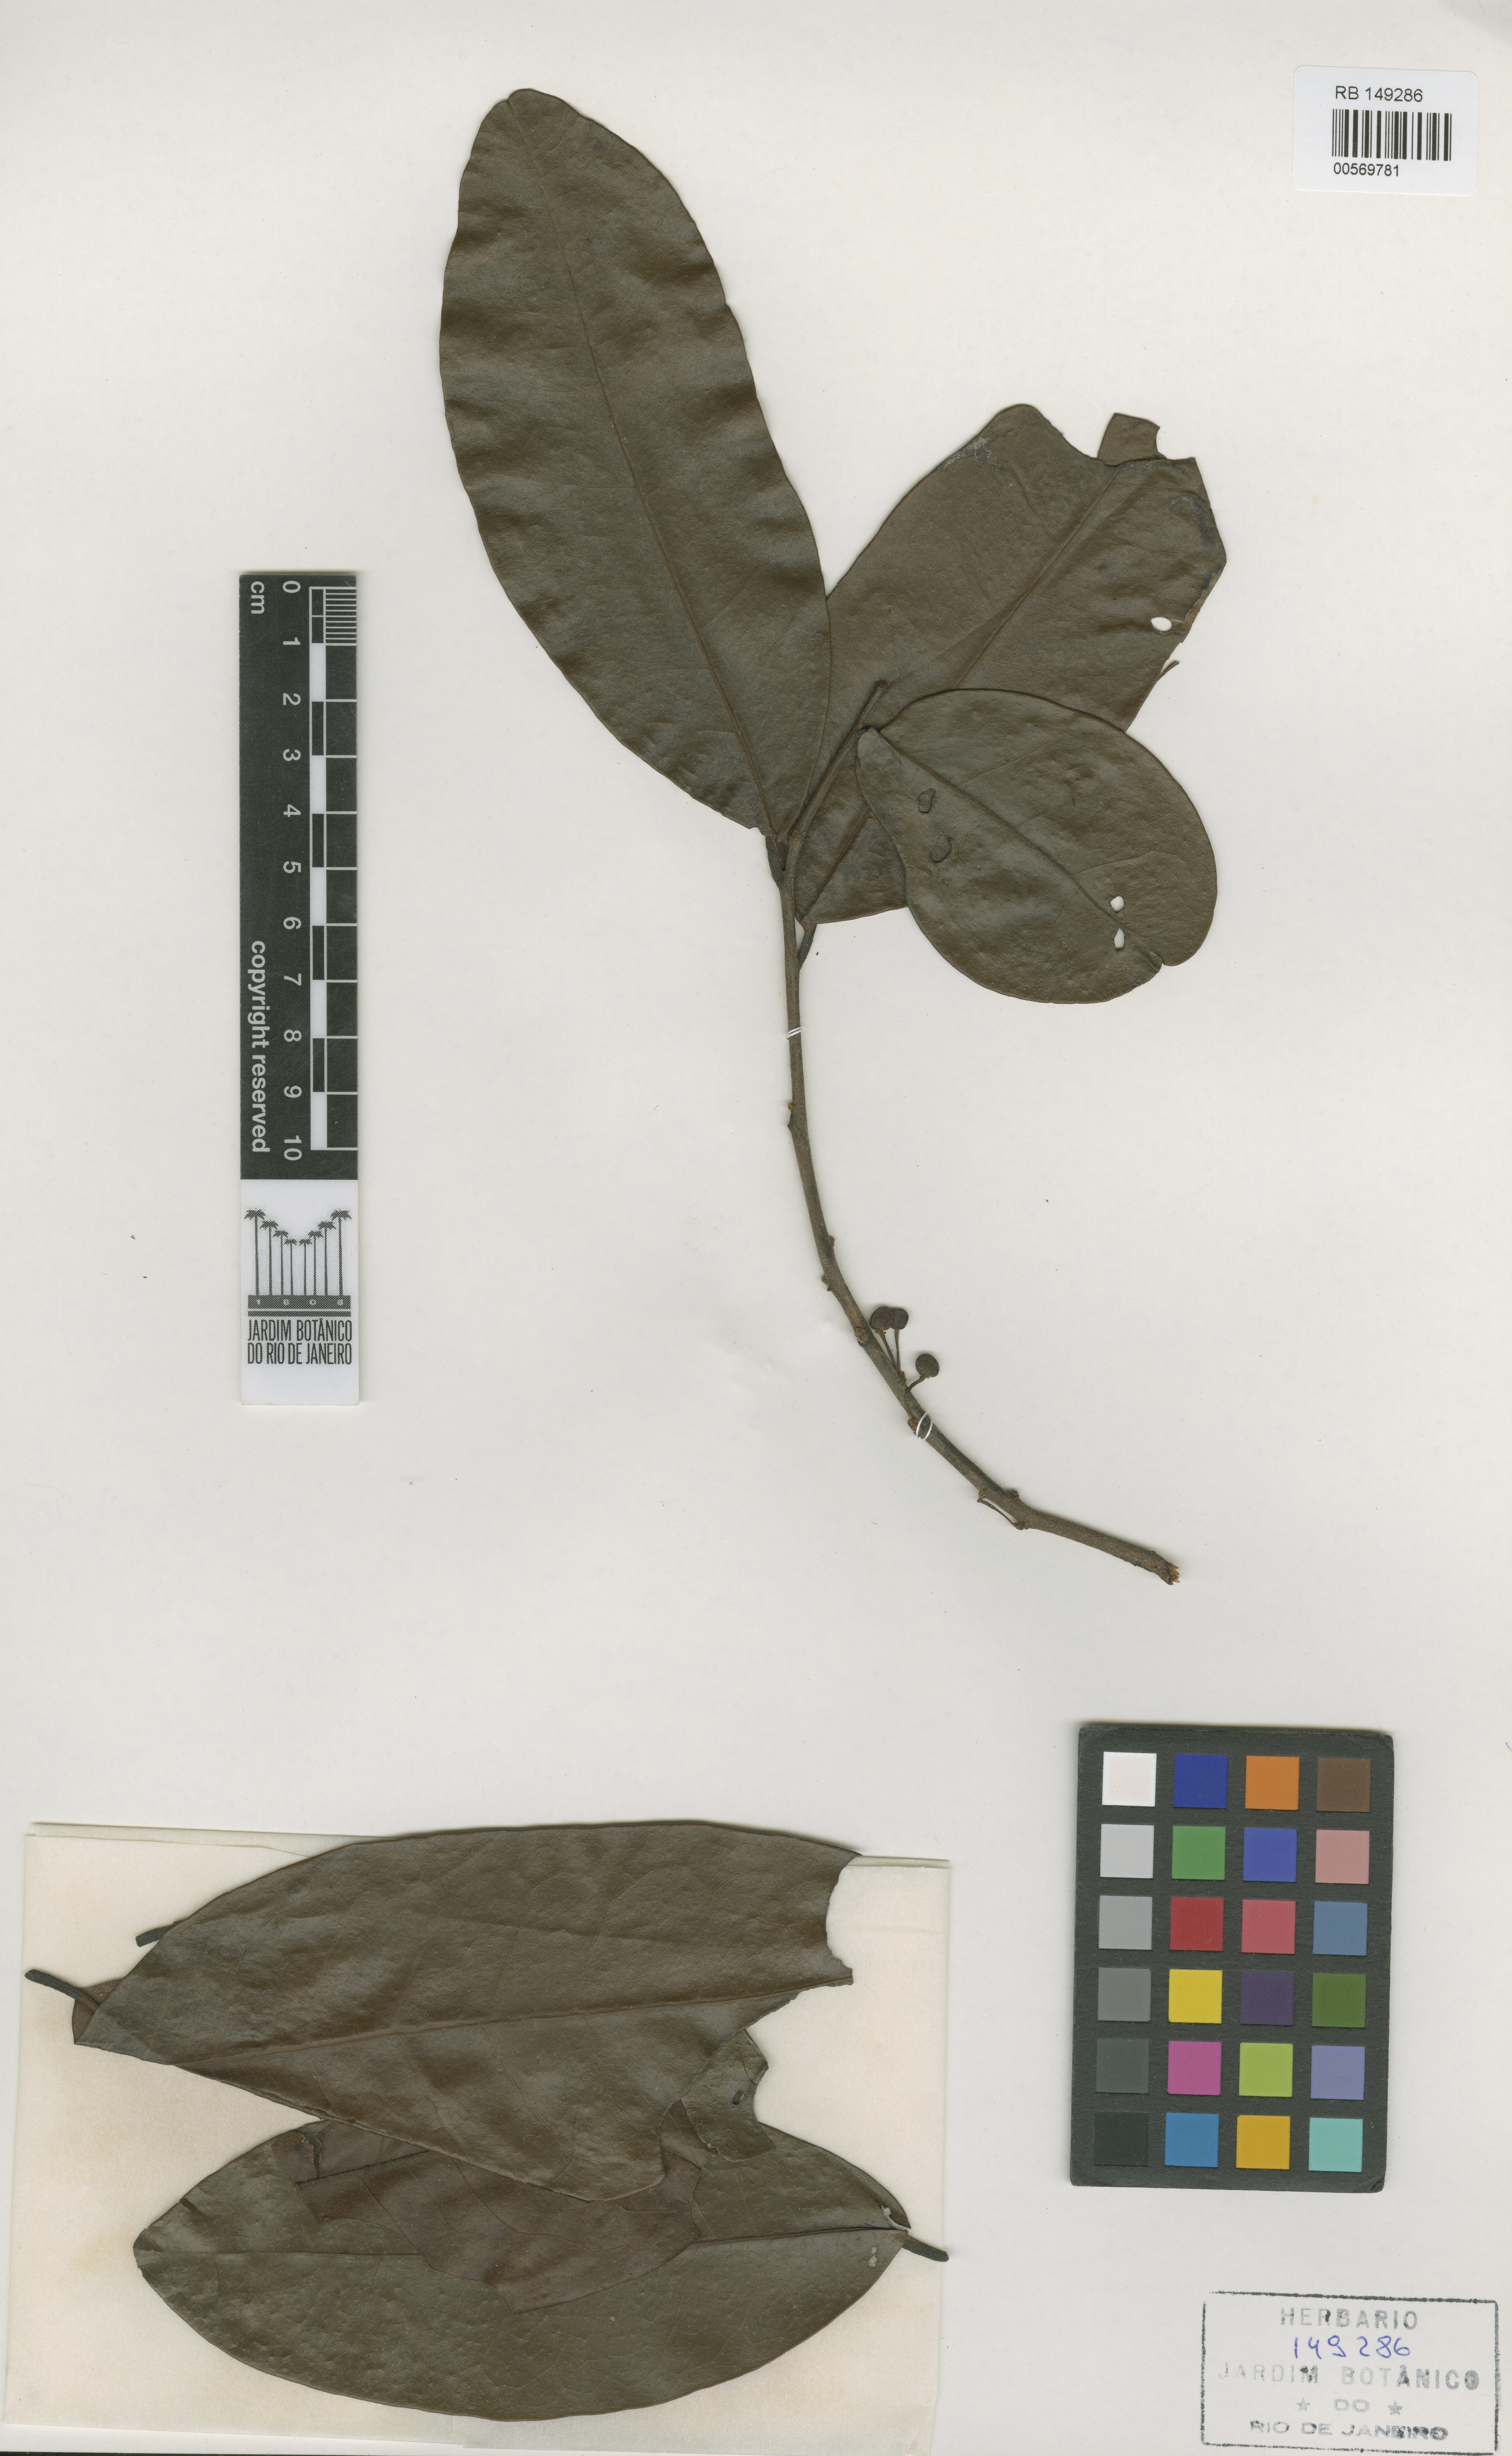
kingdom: Plantae
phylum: Tracheophyta
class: Magnoliopsida
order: Malpighiales
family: Peraceae
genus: Pera
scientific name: Pera androgyna
